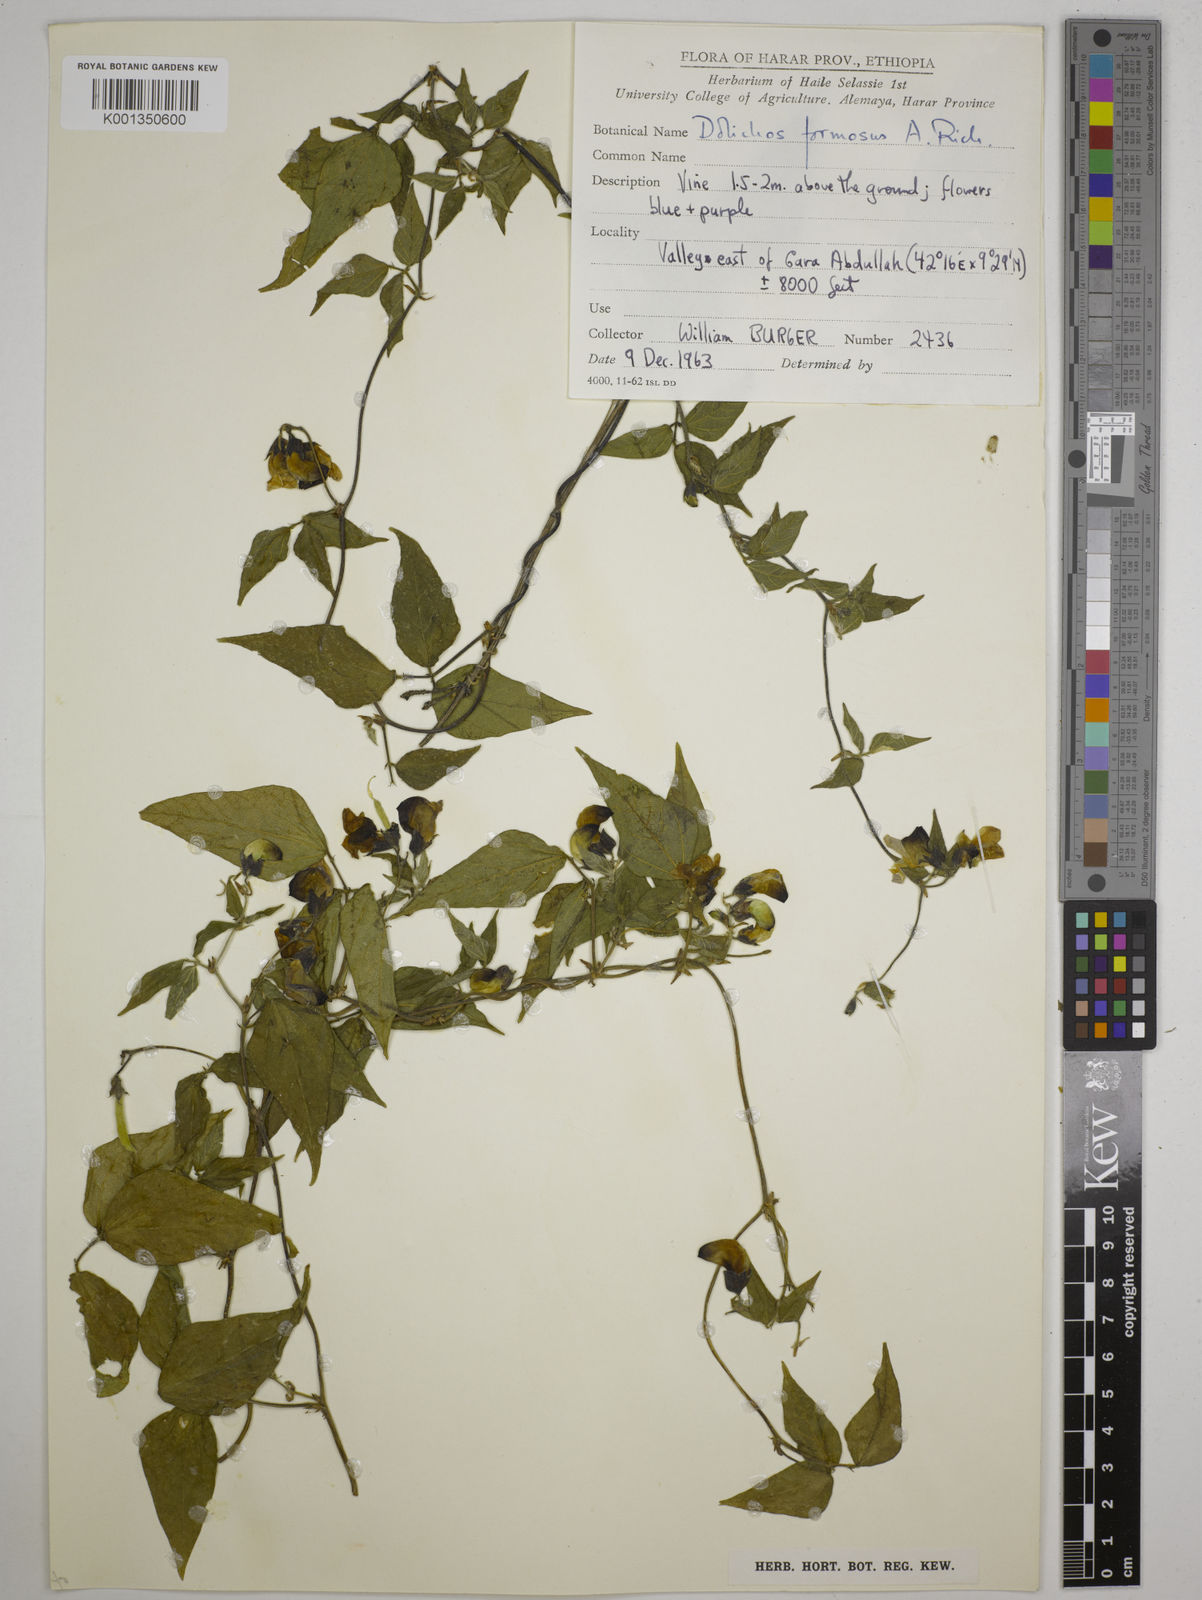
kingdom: Plantae
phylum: Tracheophyta
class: Magnoliopsida
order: Fabales
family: Fabaceae
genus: Dolichos
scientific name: Dolichos
